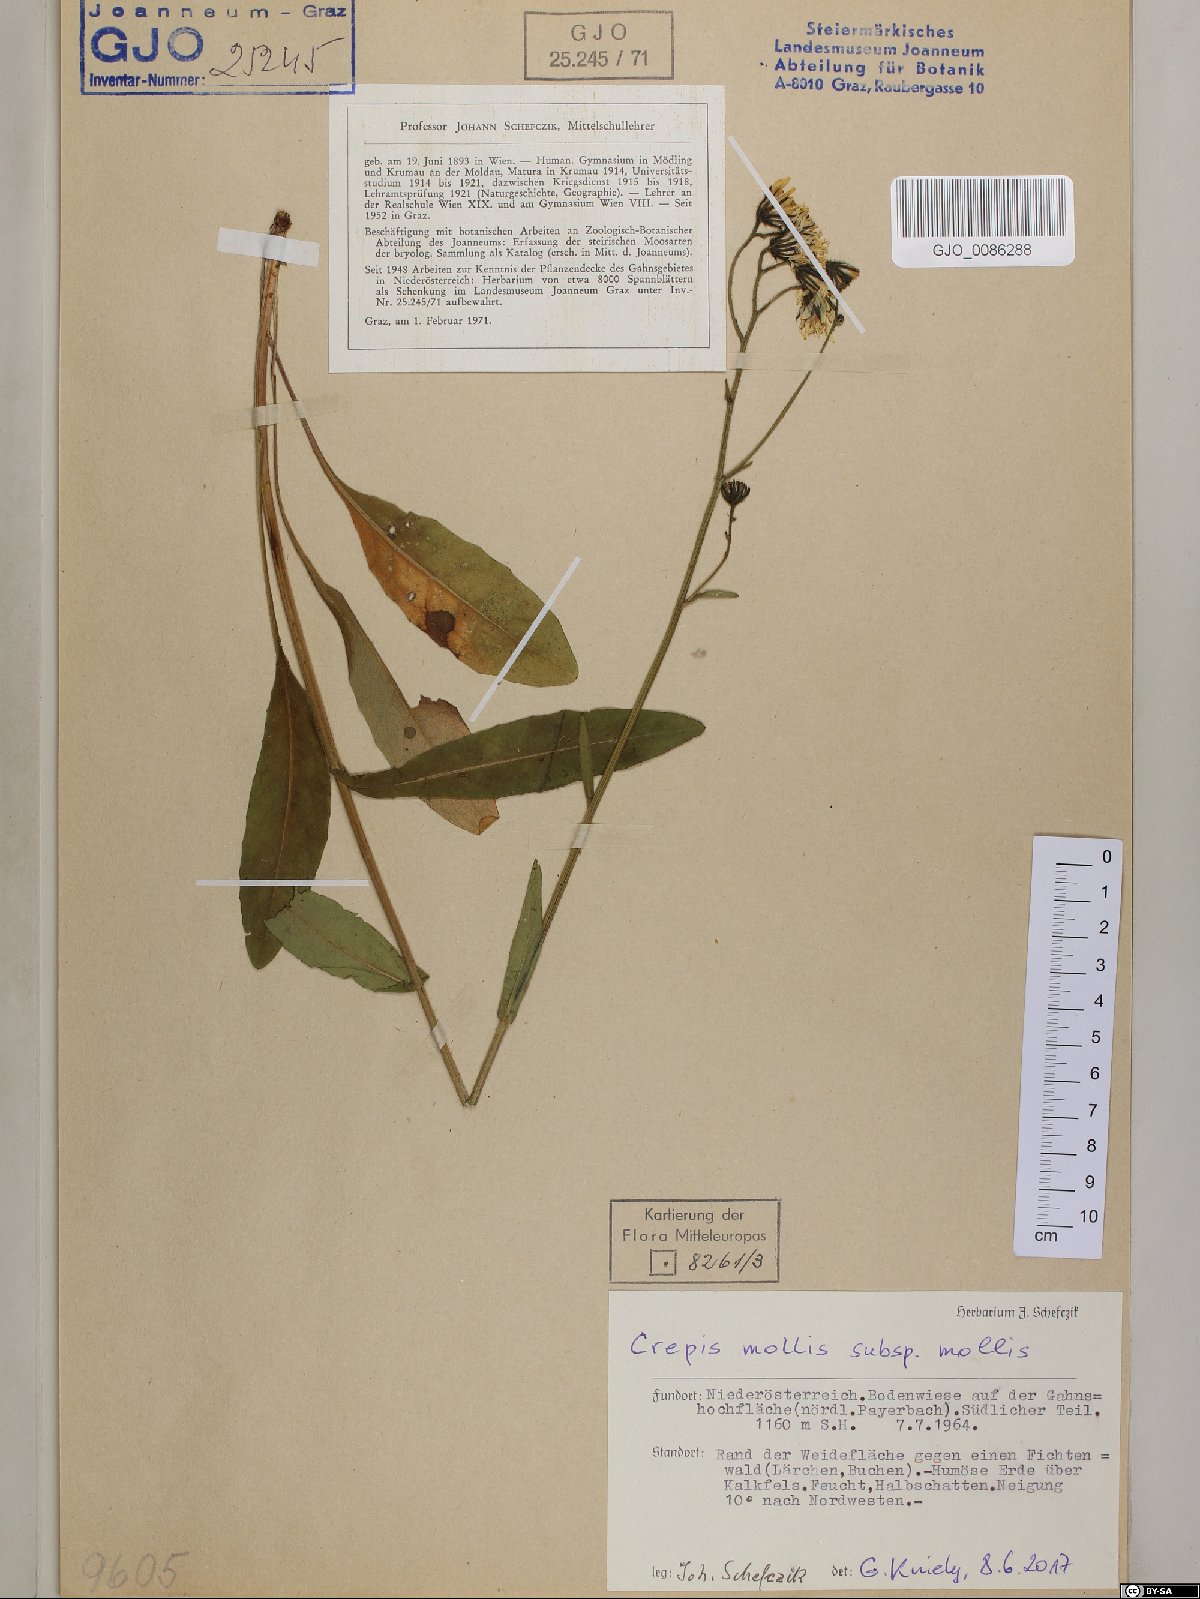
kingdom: Plantae
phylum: Tracheophyta
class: Magnoliopsida
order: Asterales
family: Asteraceae
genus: Crepis
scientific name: Crepis mollis
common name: Northern hawk's-beard
